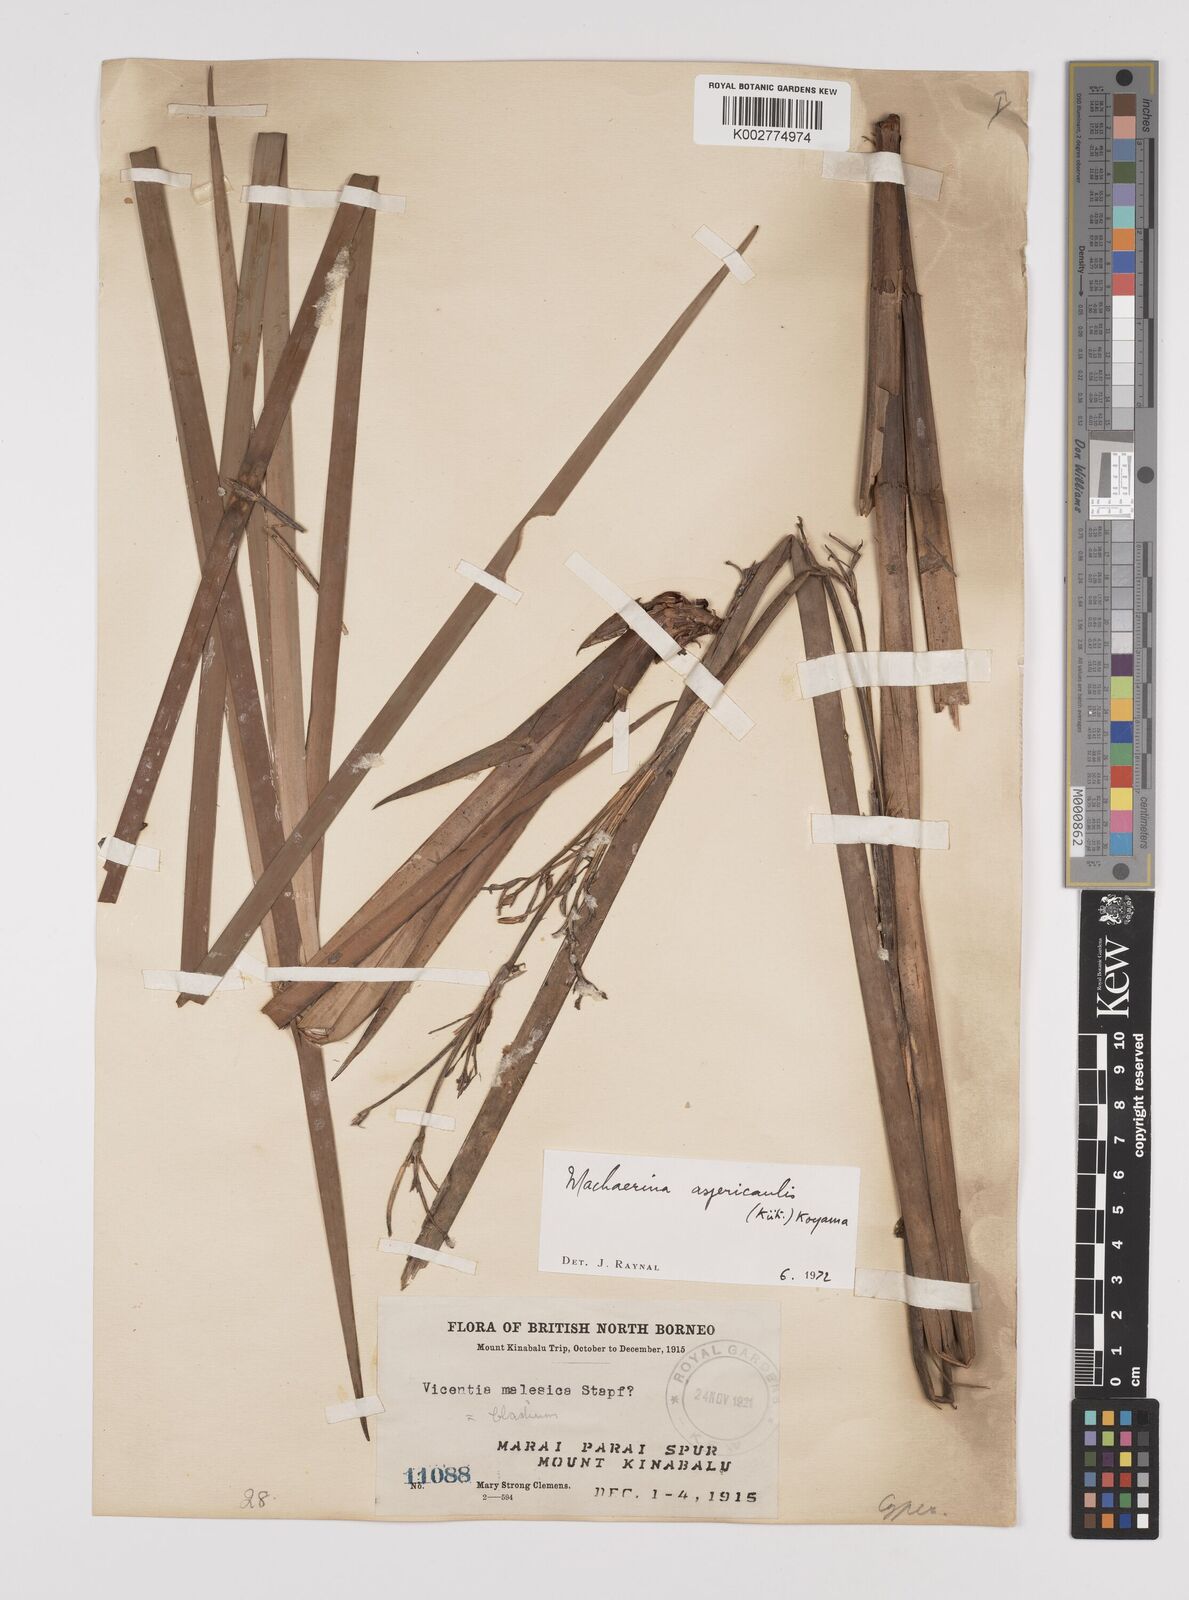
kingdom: Plantae
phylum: Tracheophyta
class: Liliopsida
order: Poales
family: Cyperaceae
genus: Machaerina
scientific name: Machaerina aspericaulis
